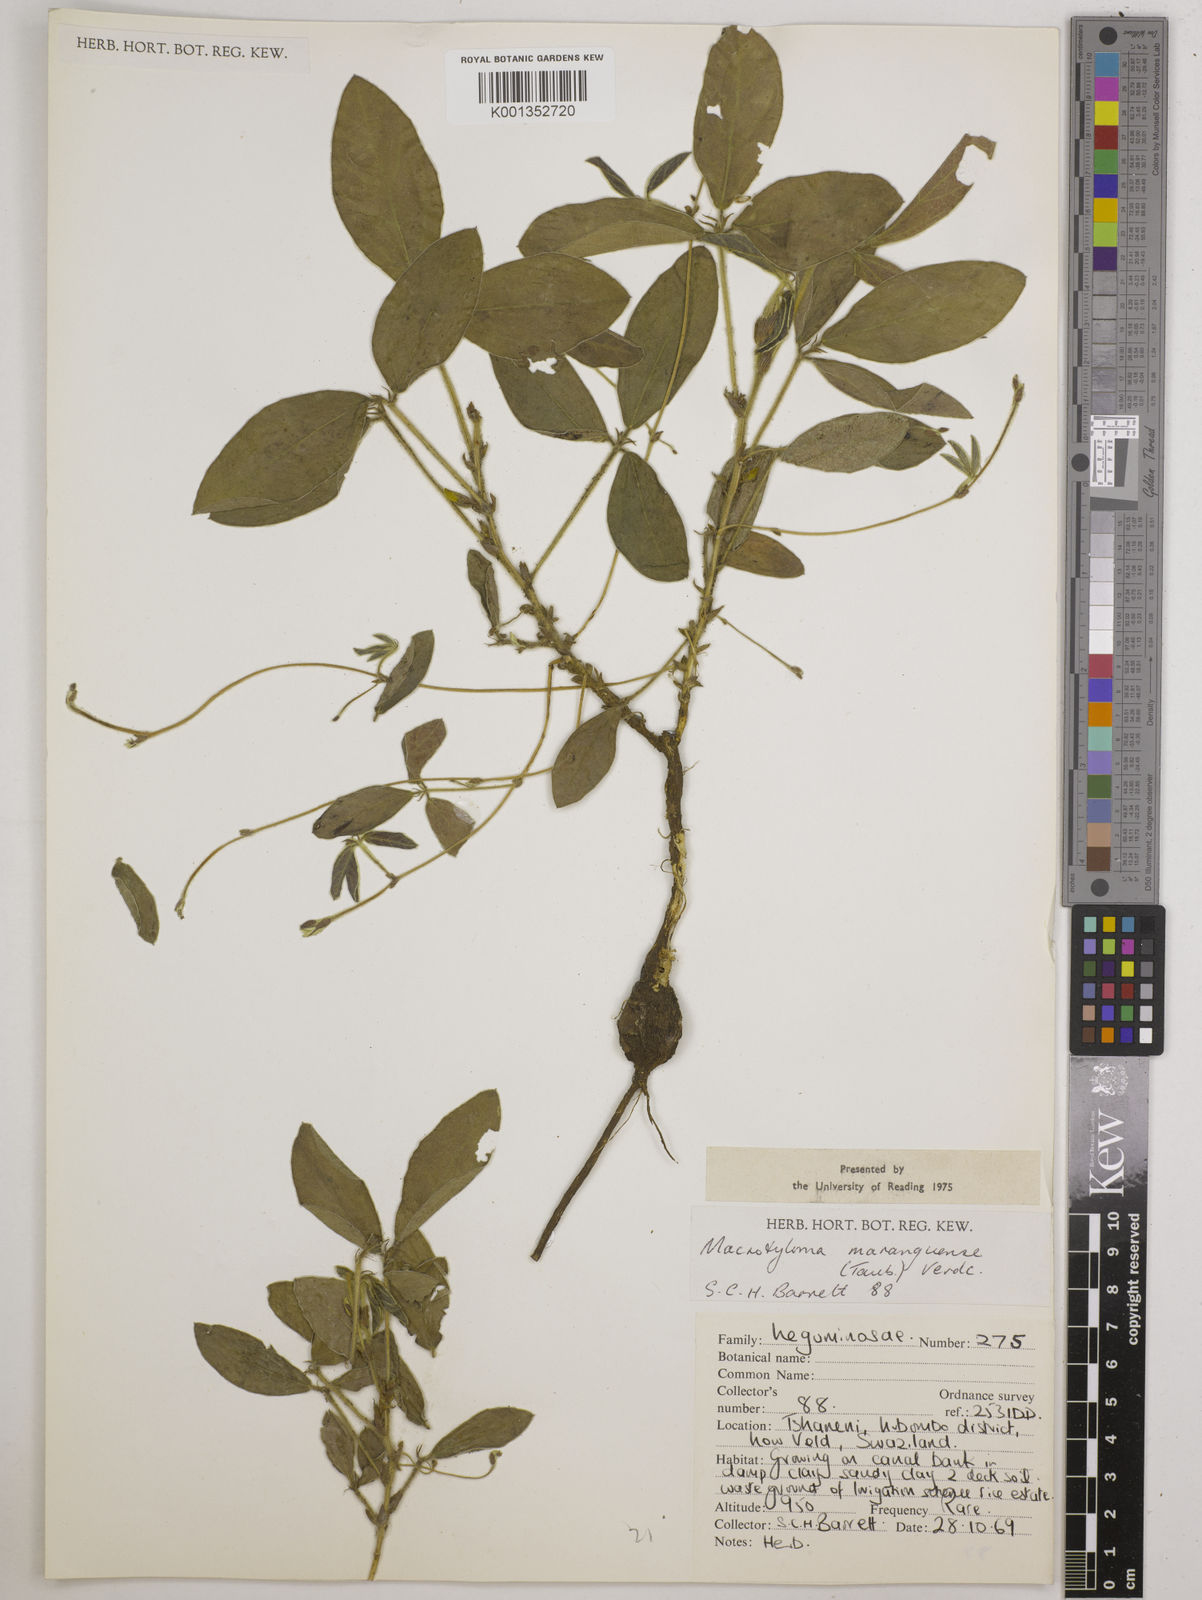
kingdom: Plantae
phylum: Tracheophyta
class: Magnoliopsida
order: Fabales
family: Fabaceae
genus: Macrotyloma
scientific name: Macrotyloma maranguense
